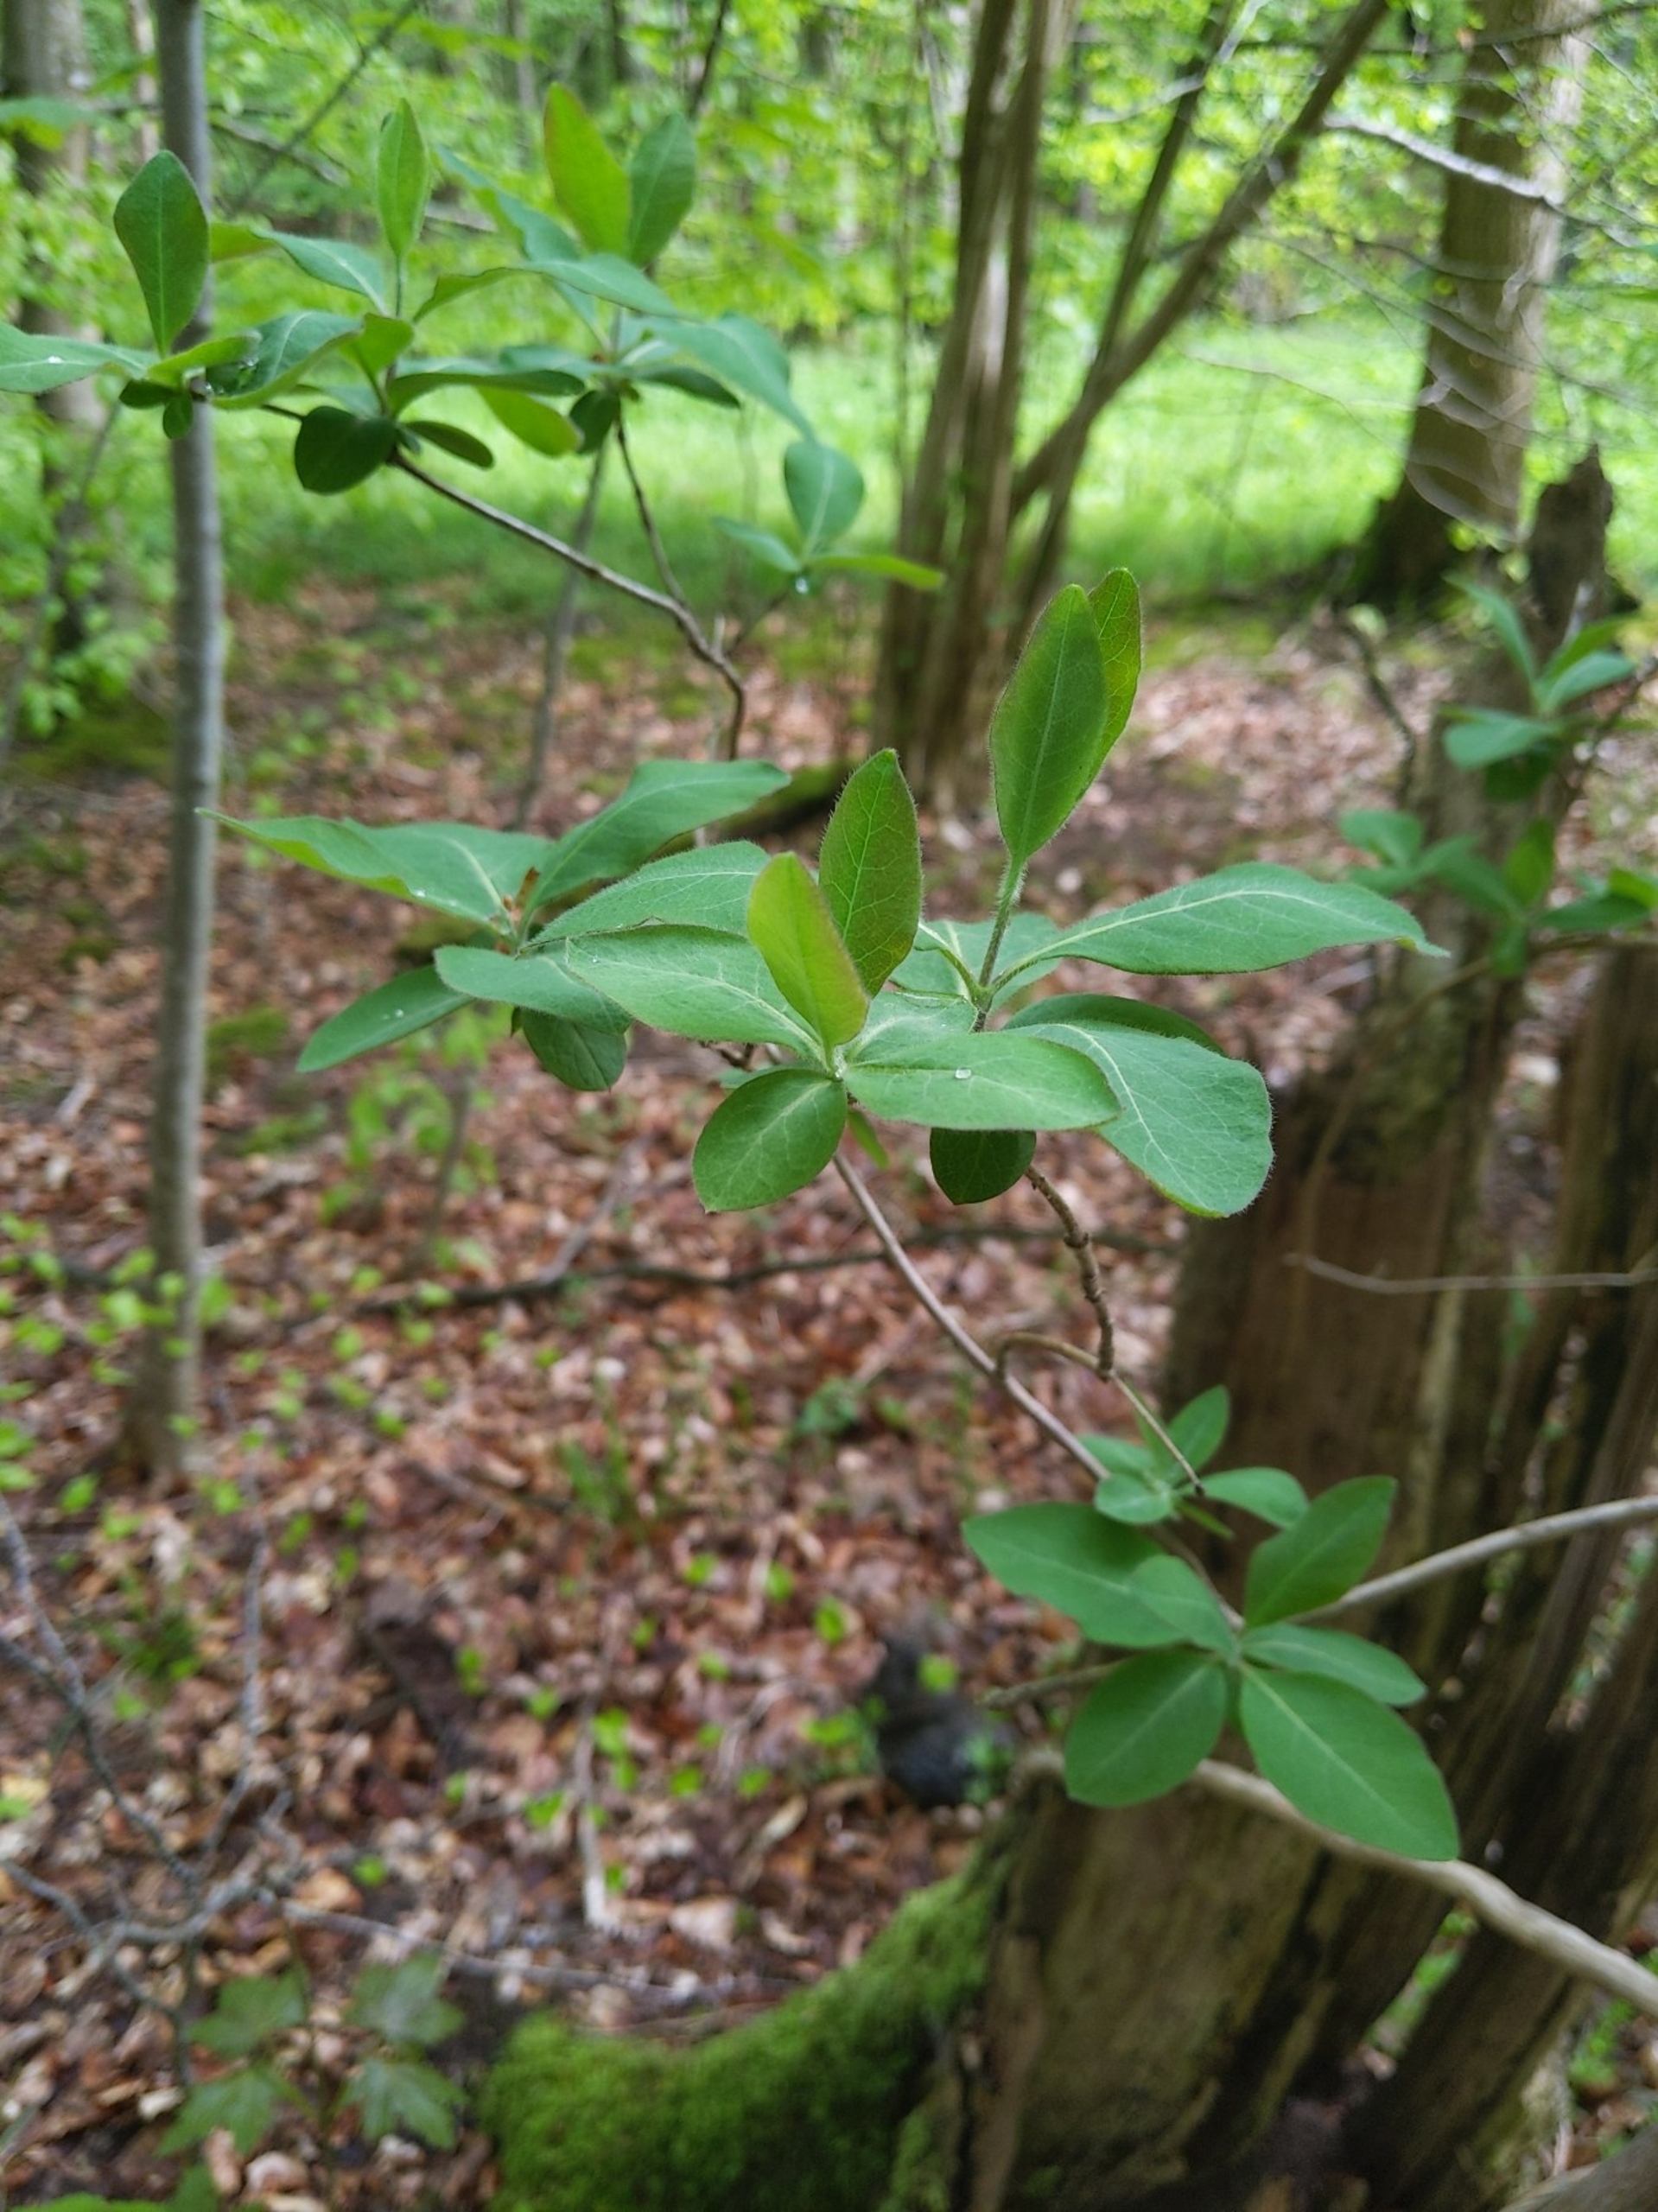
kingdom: Plantae
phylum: Tracheophyta
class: Magnoliopsida
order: Dipsacales
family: Caprifoliaceae
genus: Lonicera
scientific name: Lonicera periclymenum
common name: Almindelig gedeblad
